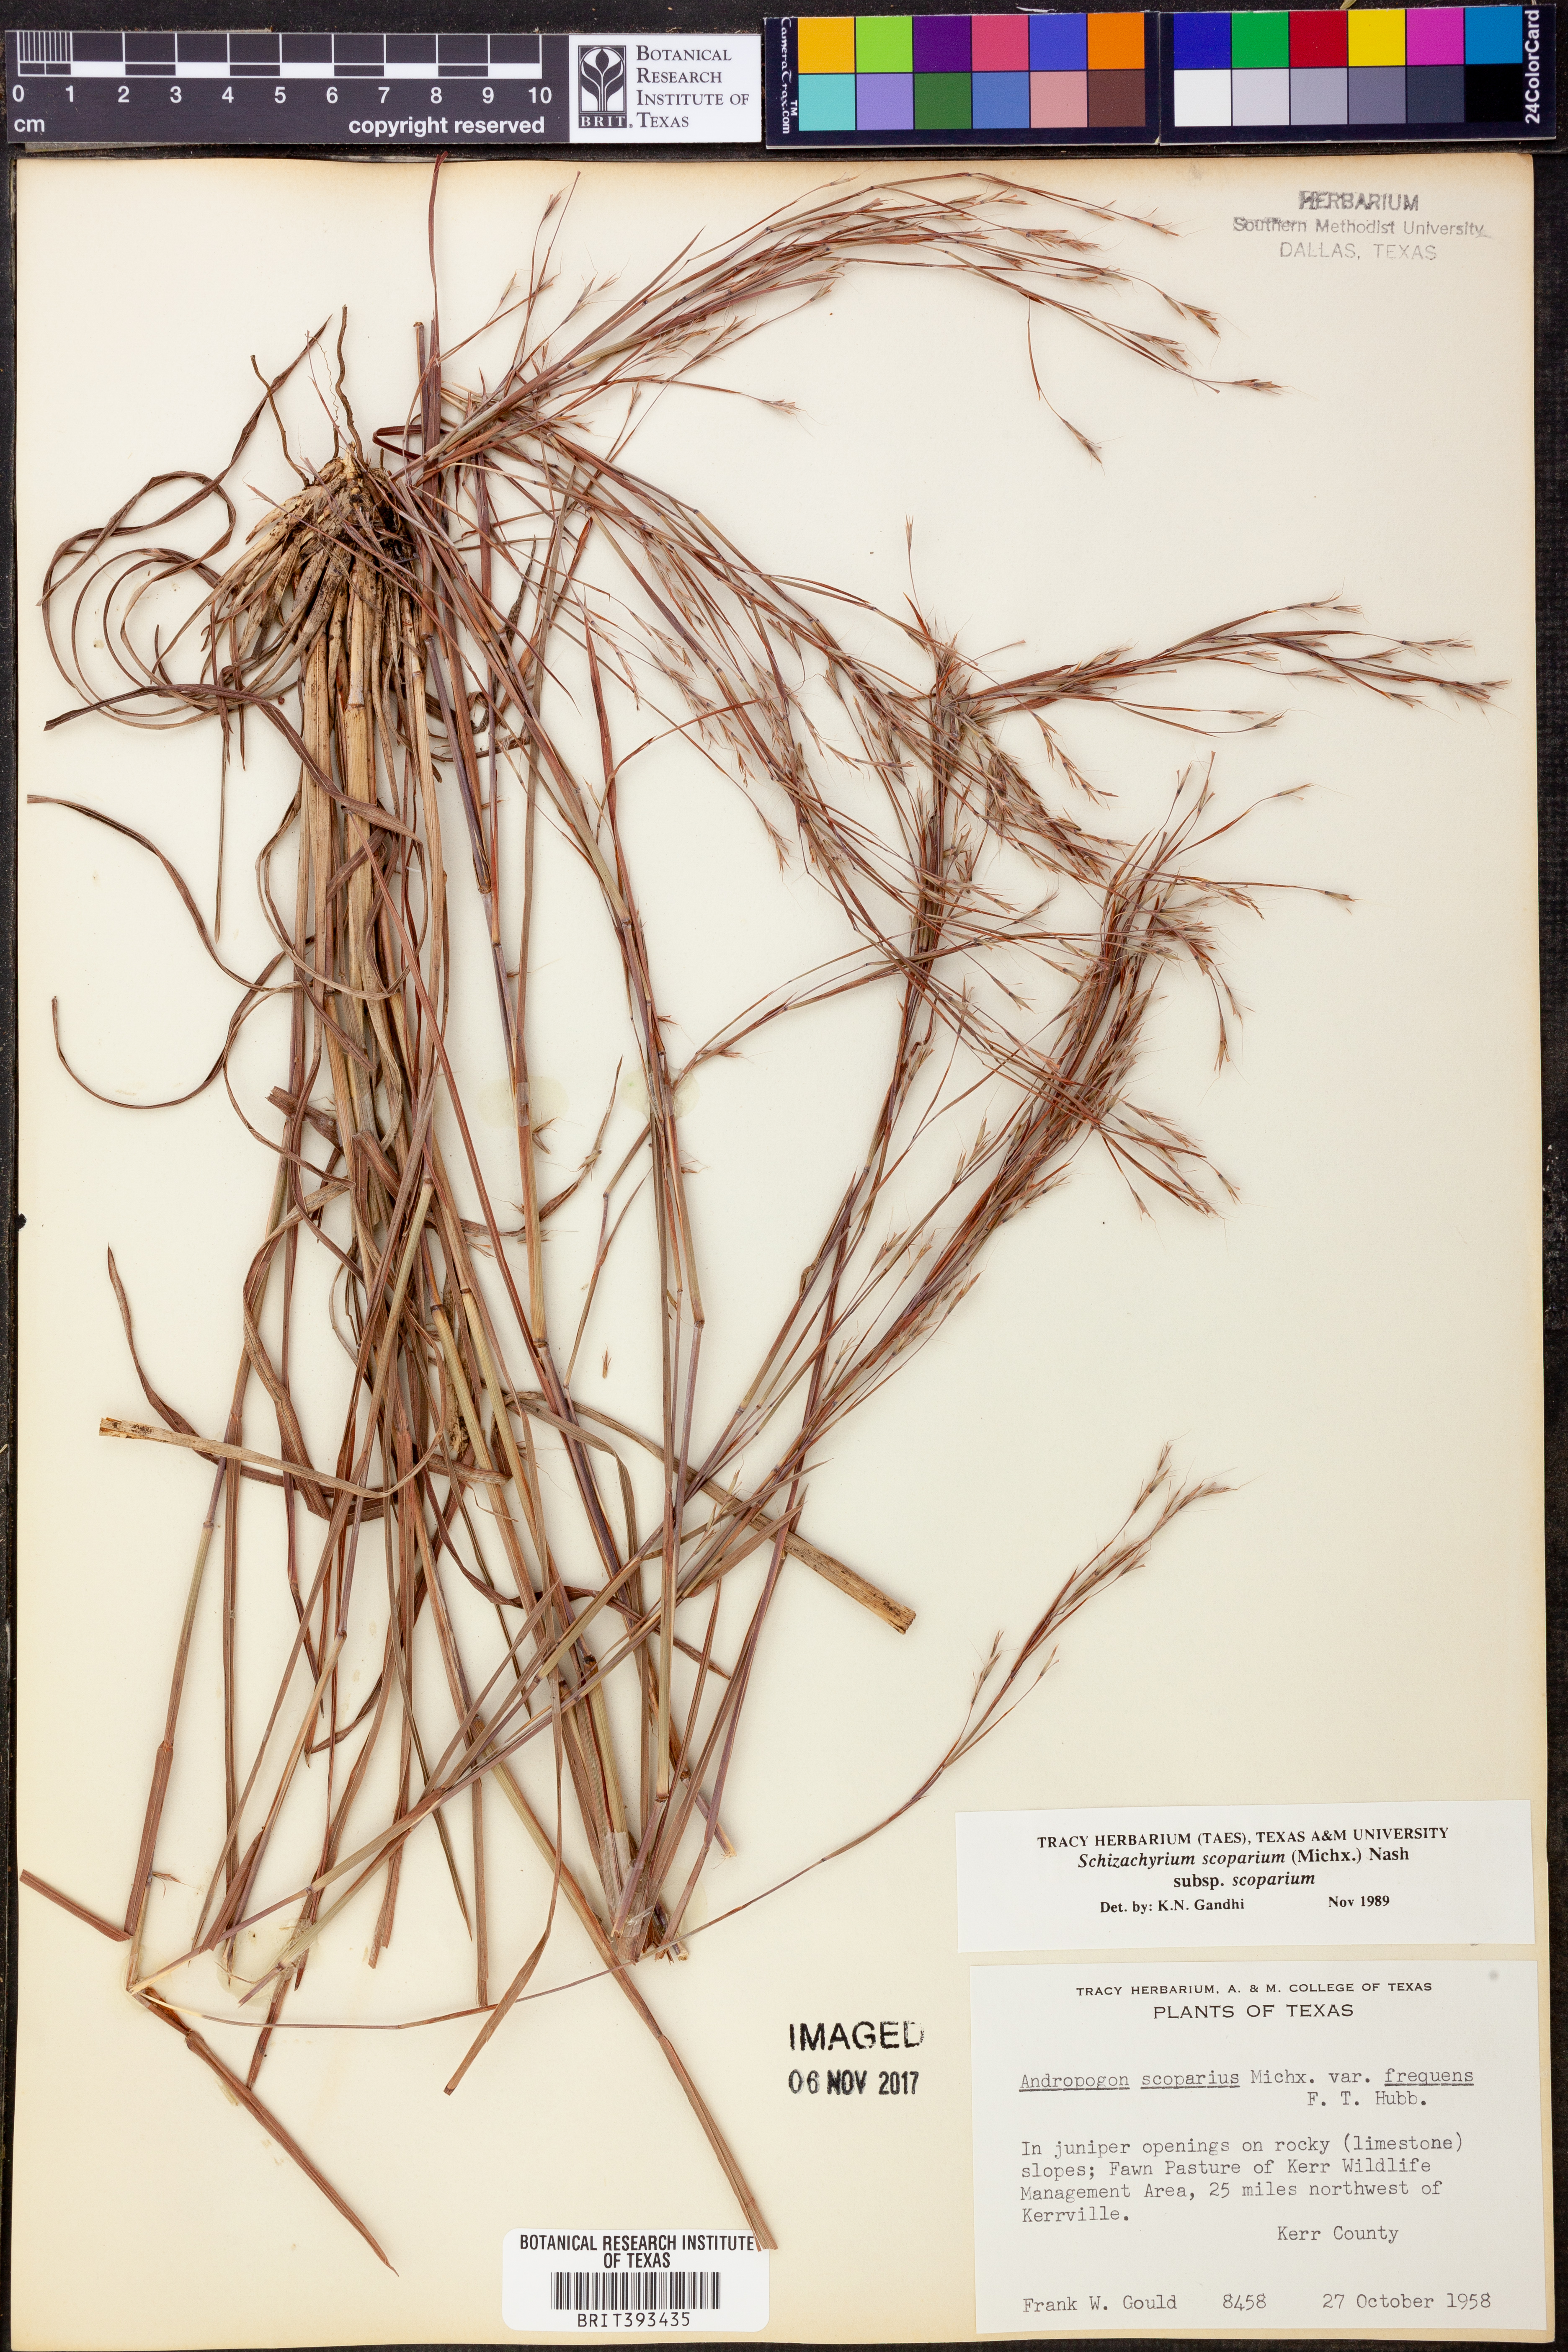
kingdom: Plantae
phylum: Tracheophyta
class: Liliopsida
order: Poales
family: Poaceae
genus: Schizachyrium
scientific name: Schizachyrium scoparium
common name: Little bluestem
